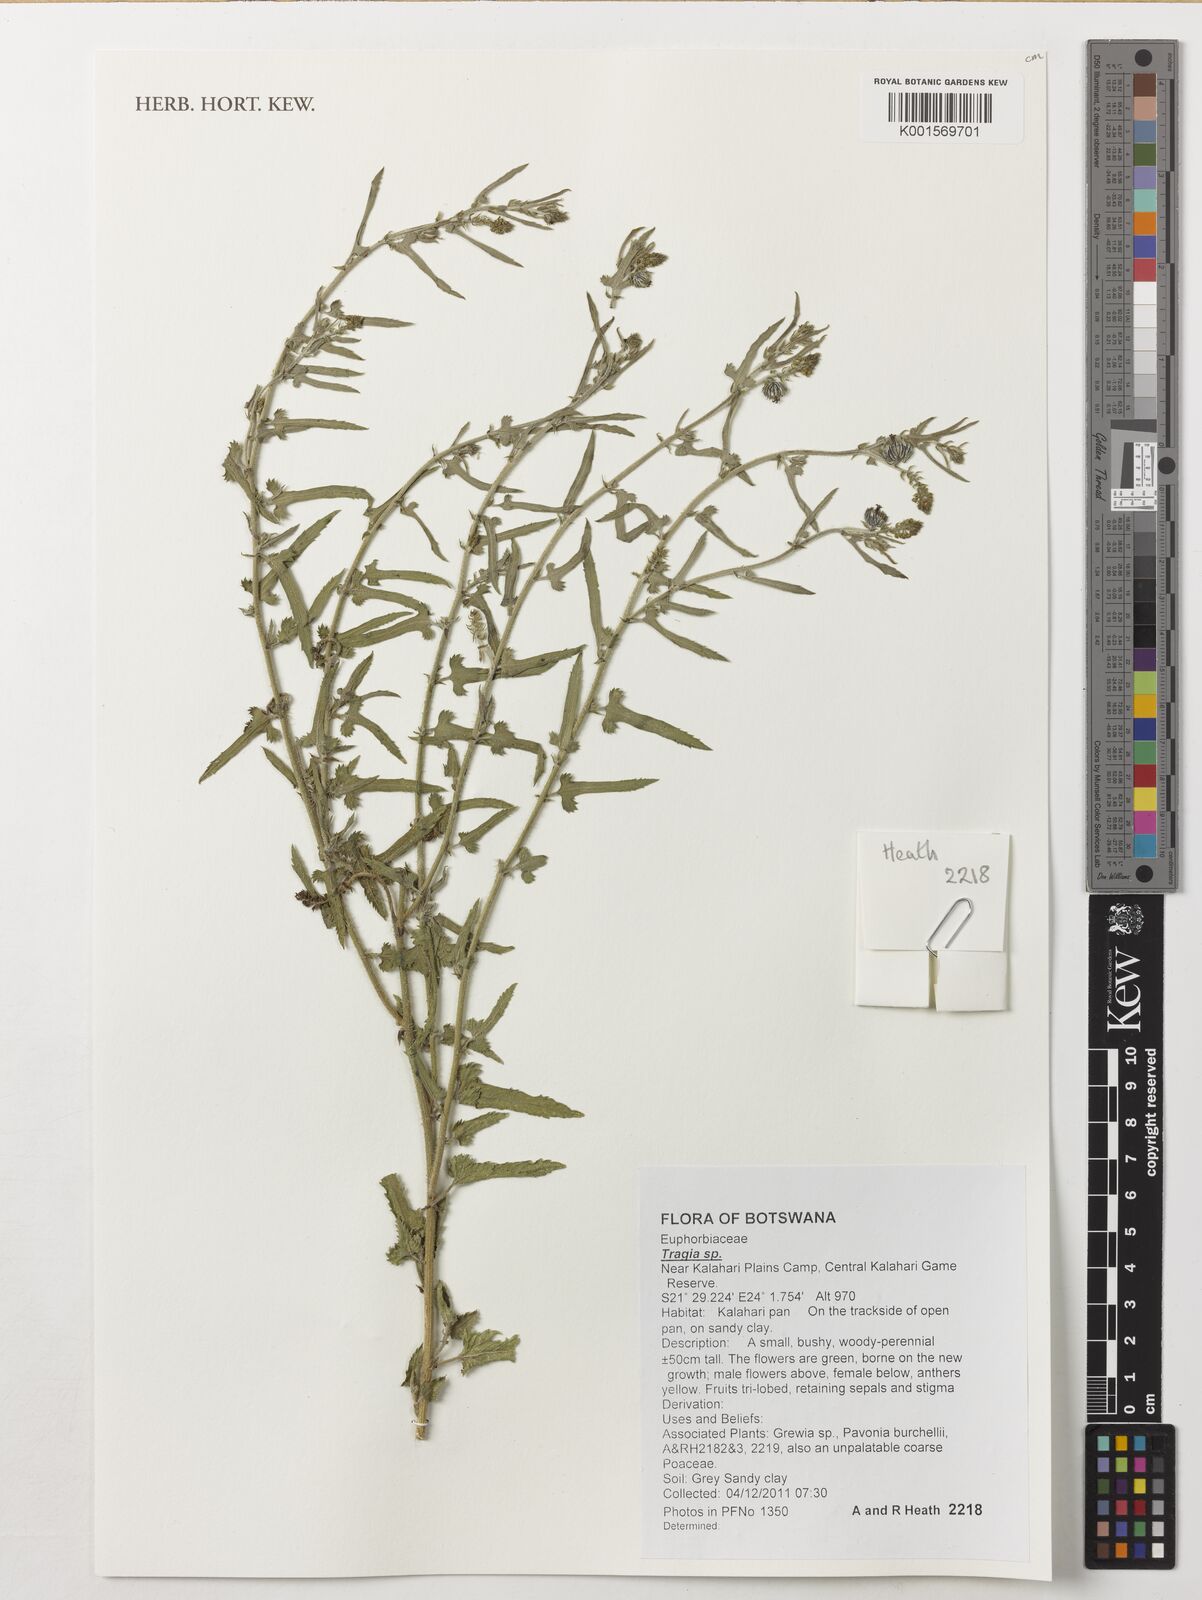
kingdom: Plantae
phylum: Tracheophyta
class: Magnoliopsida
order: Malpighiales
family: Euphorbiaceae
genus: Tragia
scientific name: Tragia
